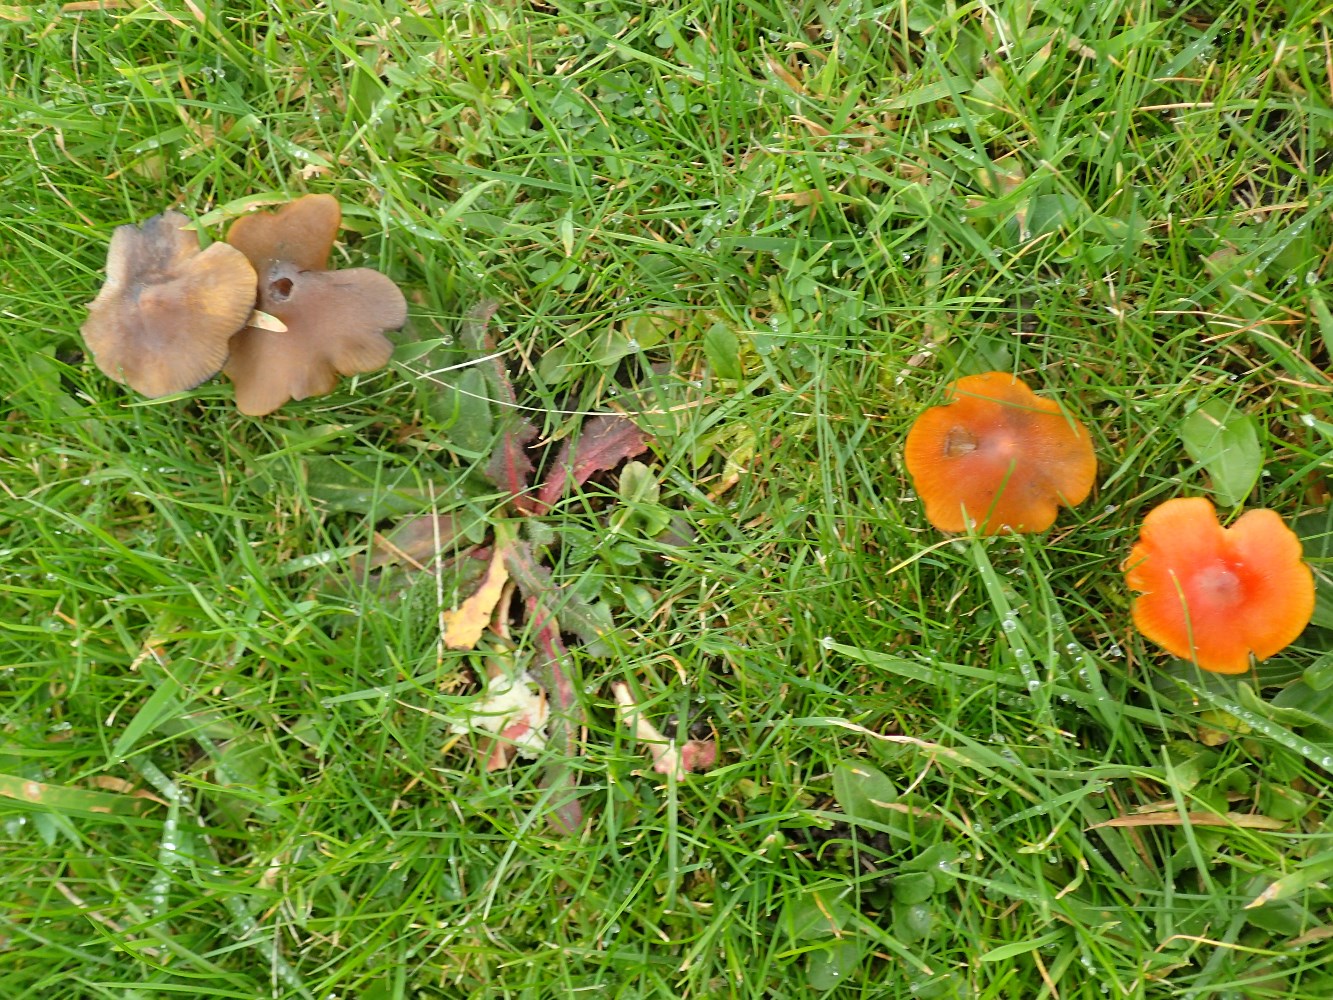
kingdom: Fungi
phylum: Basidiomycota
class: Agaricomycetes
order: Agaricales
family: Hygrophoraceae
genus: Hygrocybe
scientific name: Hygrocybe conica
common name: kegle-vokshat
